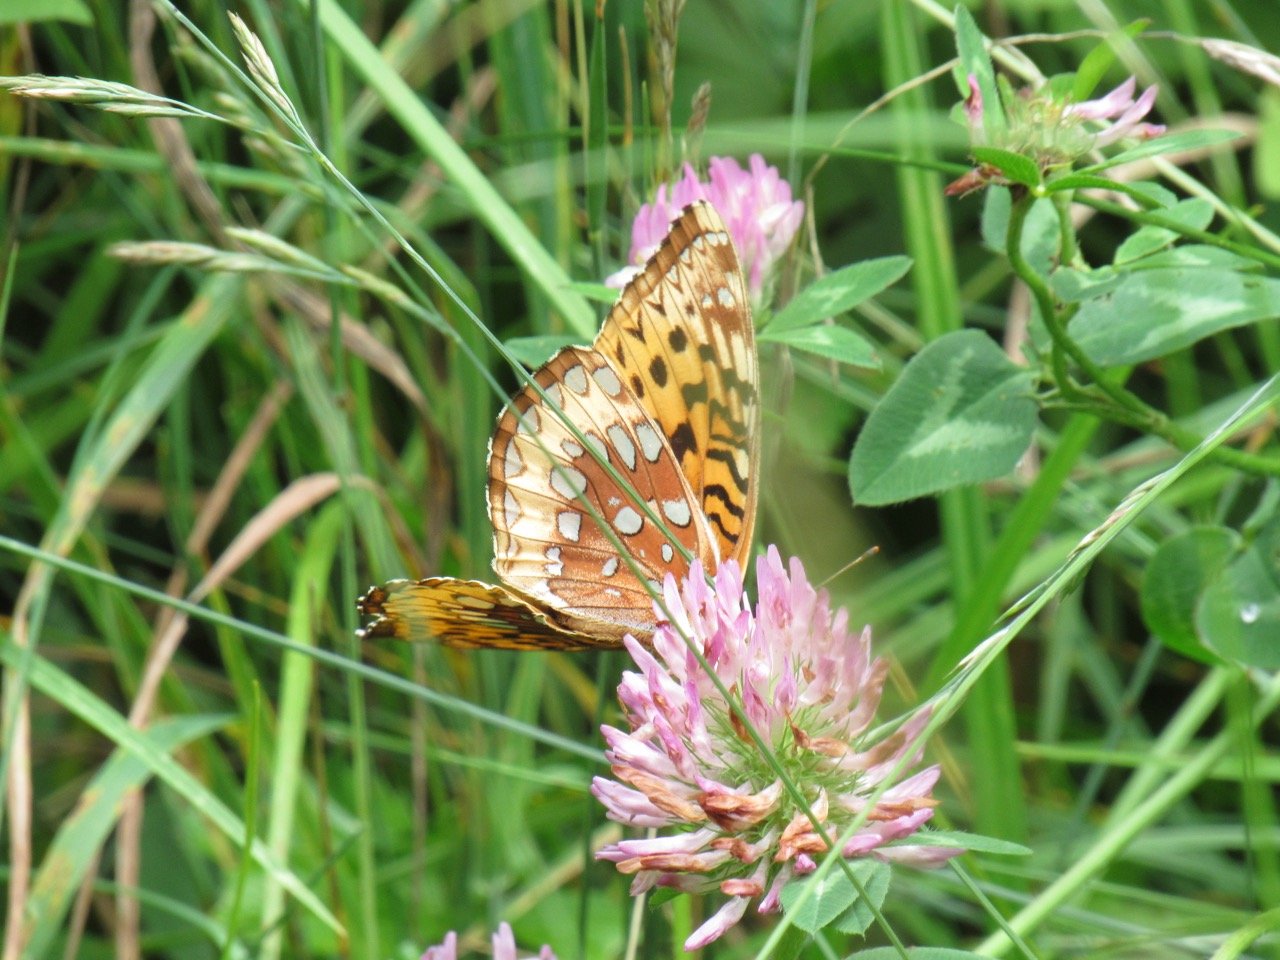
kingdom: Animalia
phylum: Arthropoda
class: Insecta
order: Lepidoptera
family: Nymphalidae
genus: Speyeria
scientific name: Speyeria cybele
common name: Great Spangled Fritillary
